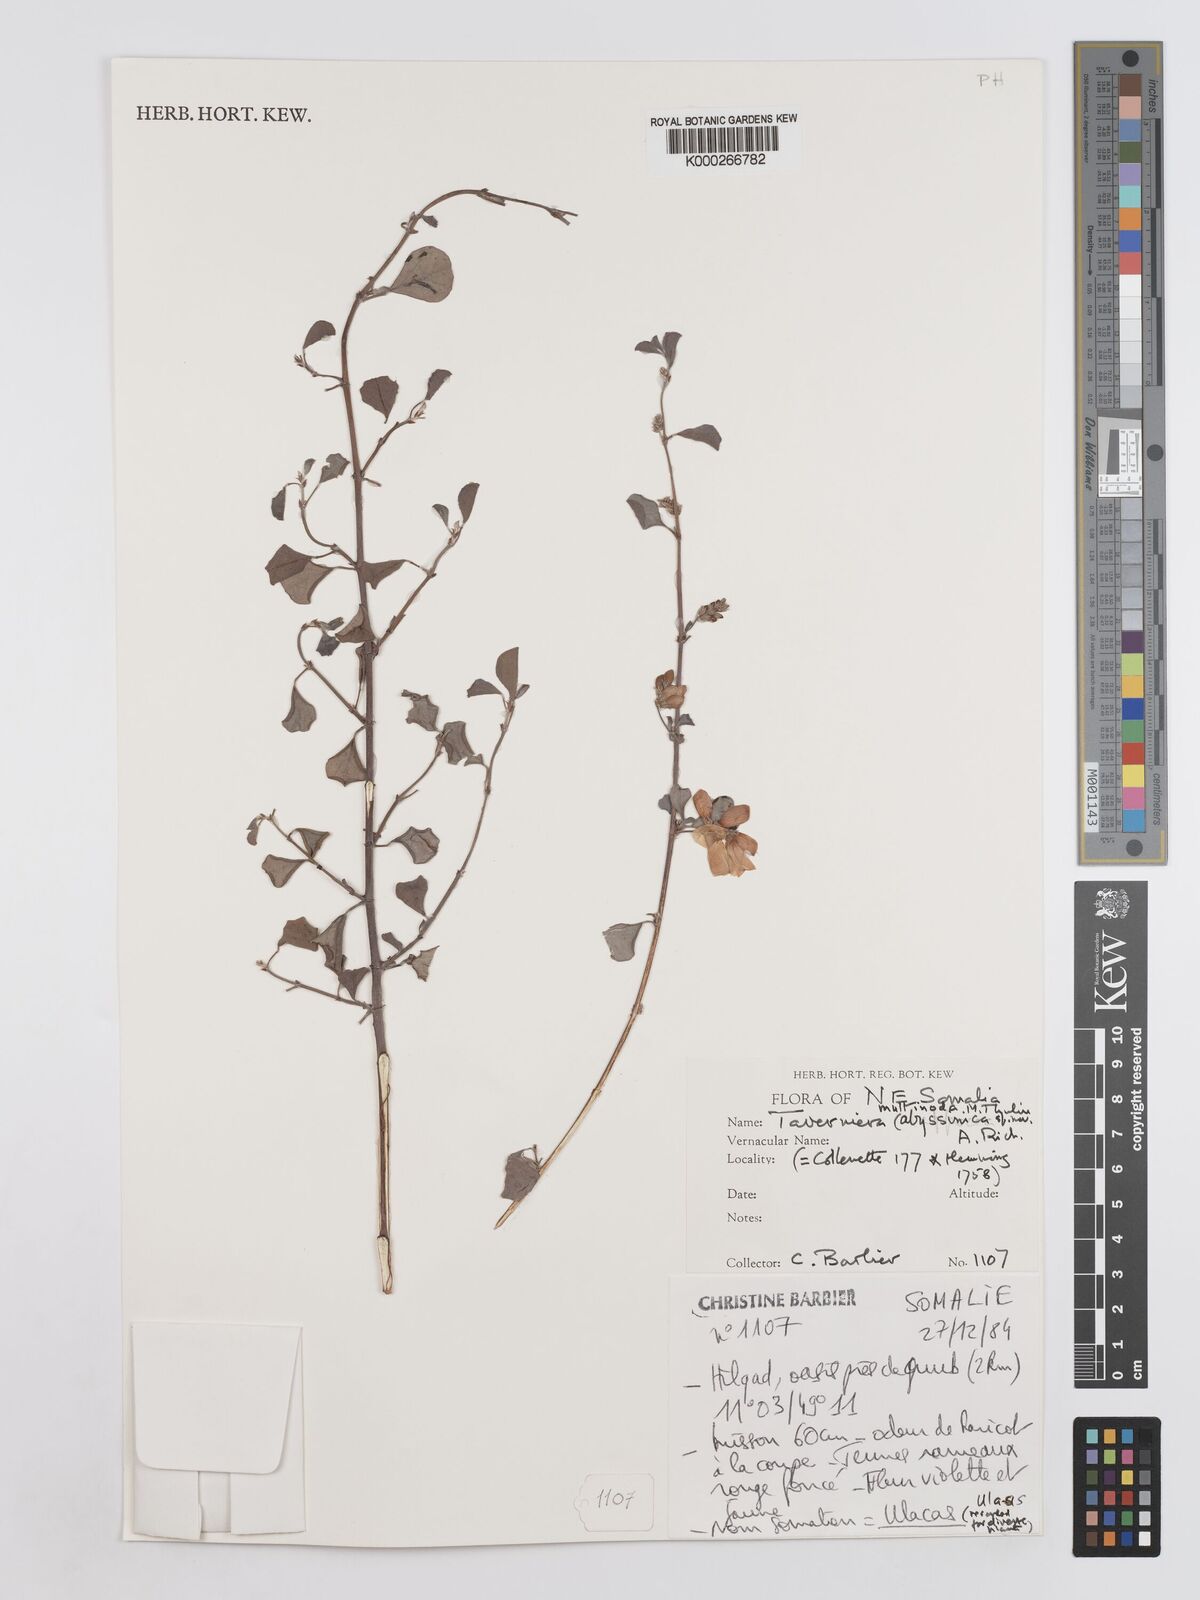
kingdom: Plantae
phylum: Tracheophyta
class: Magnoliopsida
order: Fabales
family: Fabaceae
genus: Taverniera
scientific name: Taverniera multinoda
